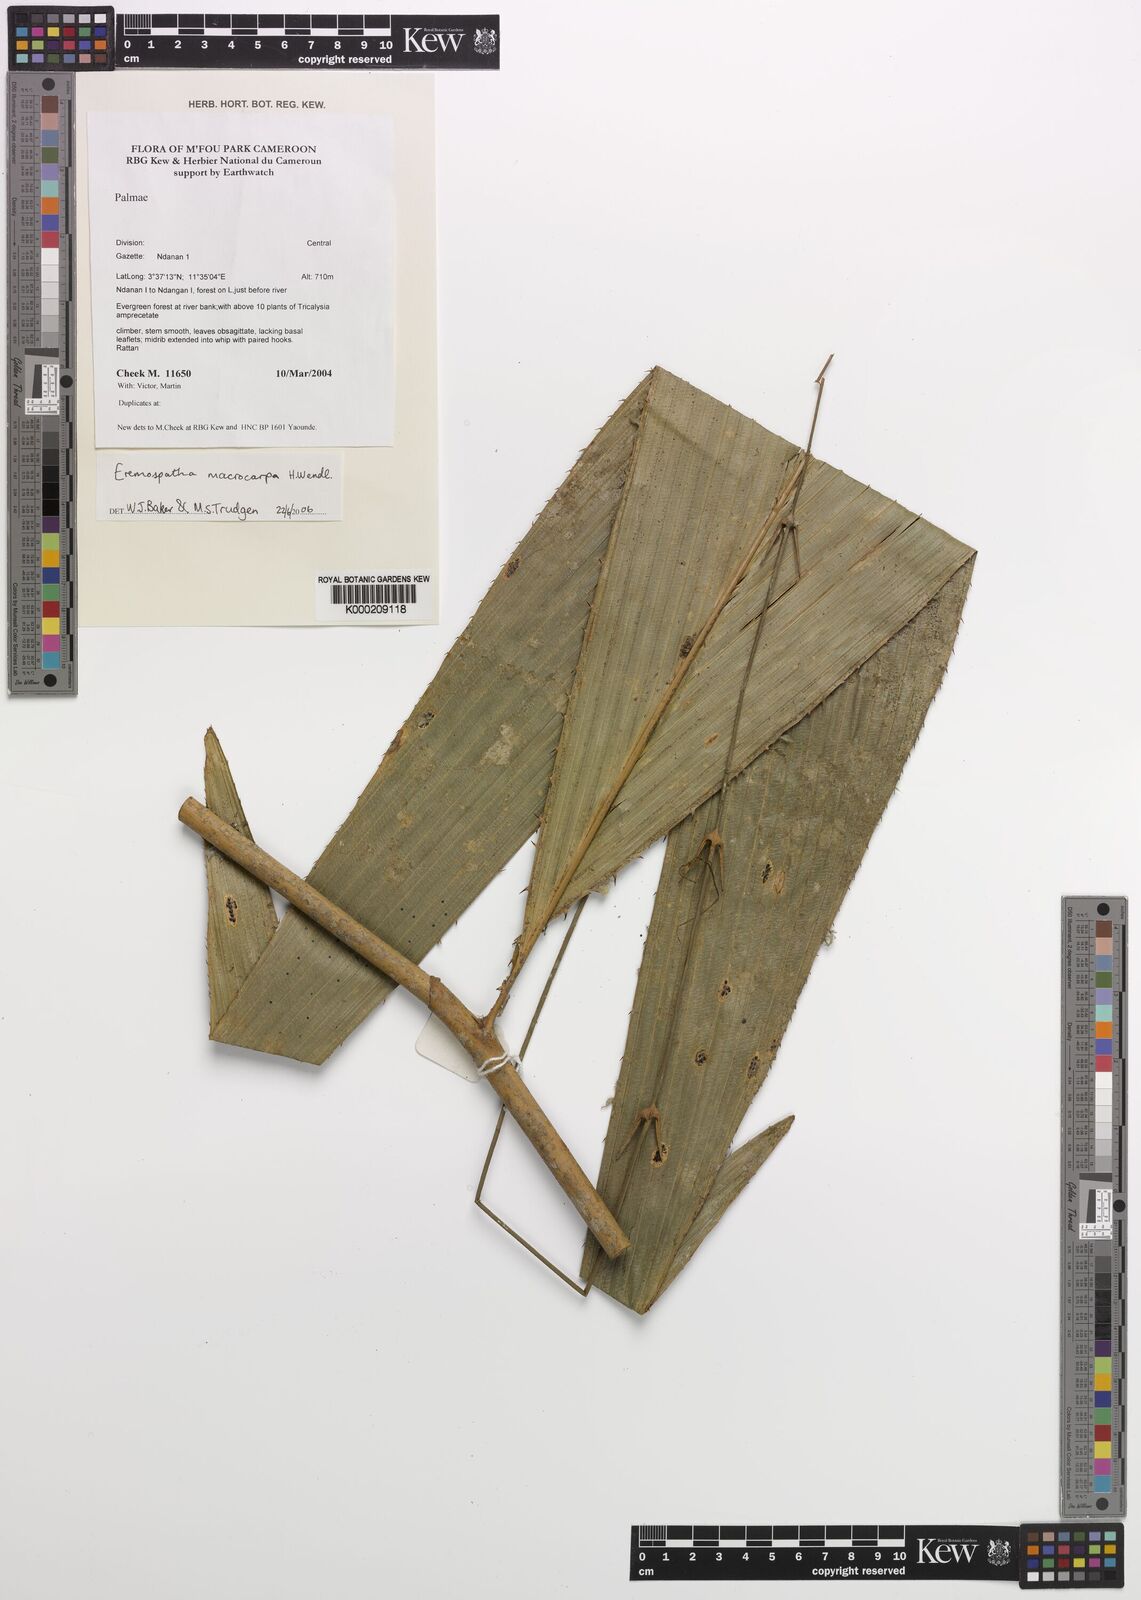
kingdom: Plantae
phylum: Tracheophyta
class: Liliopsida
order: Arecales
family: Arecaceae
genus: Eremospatha
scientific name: Eremospatha
